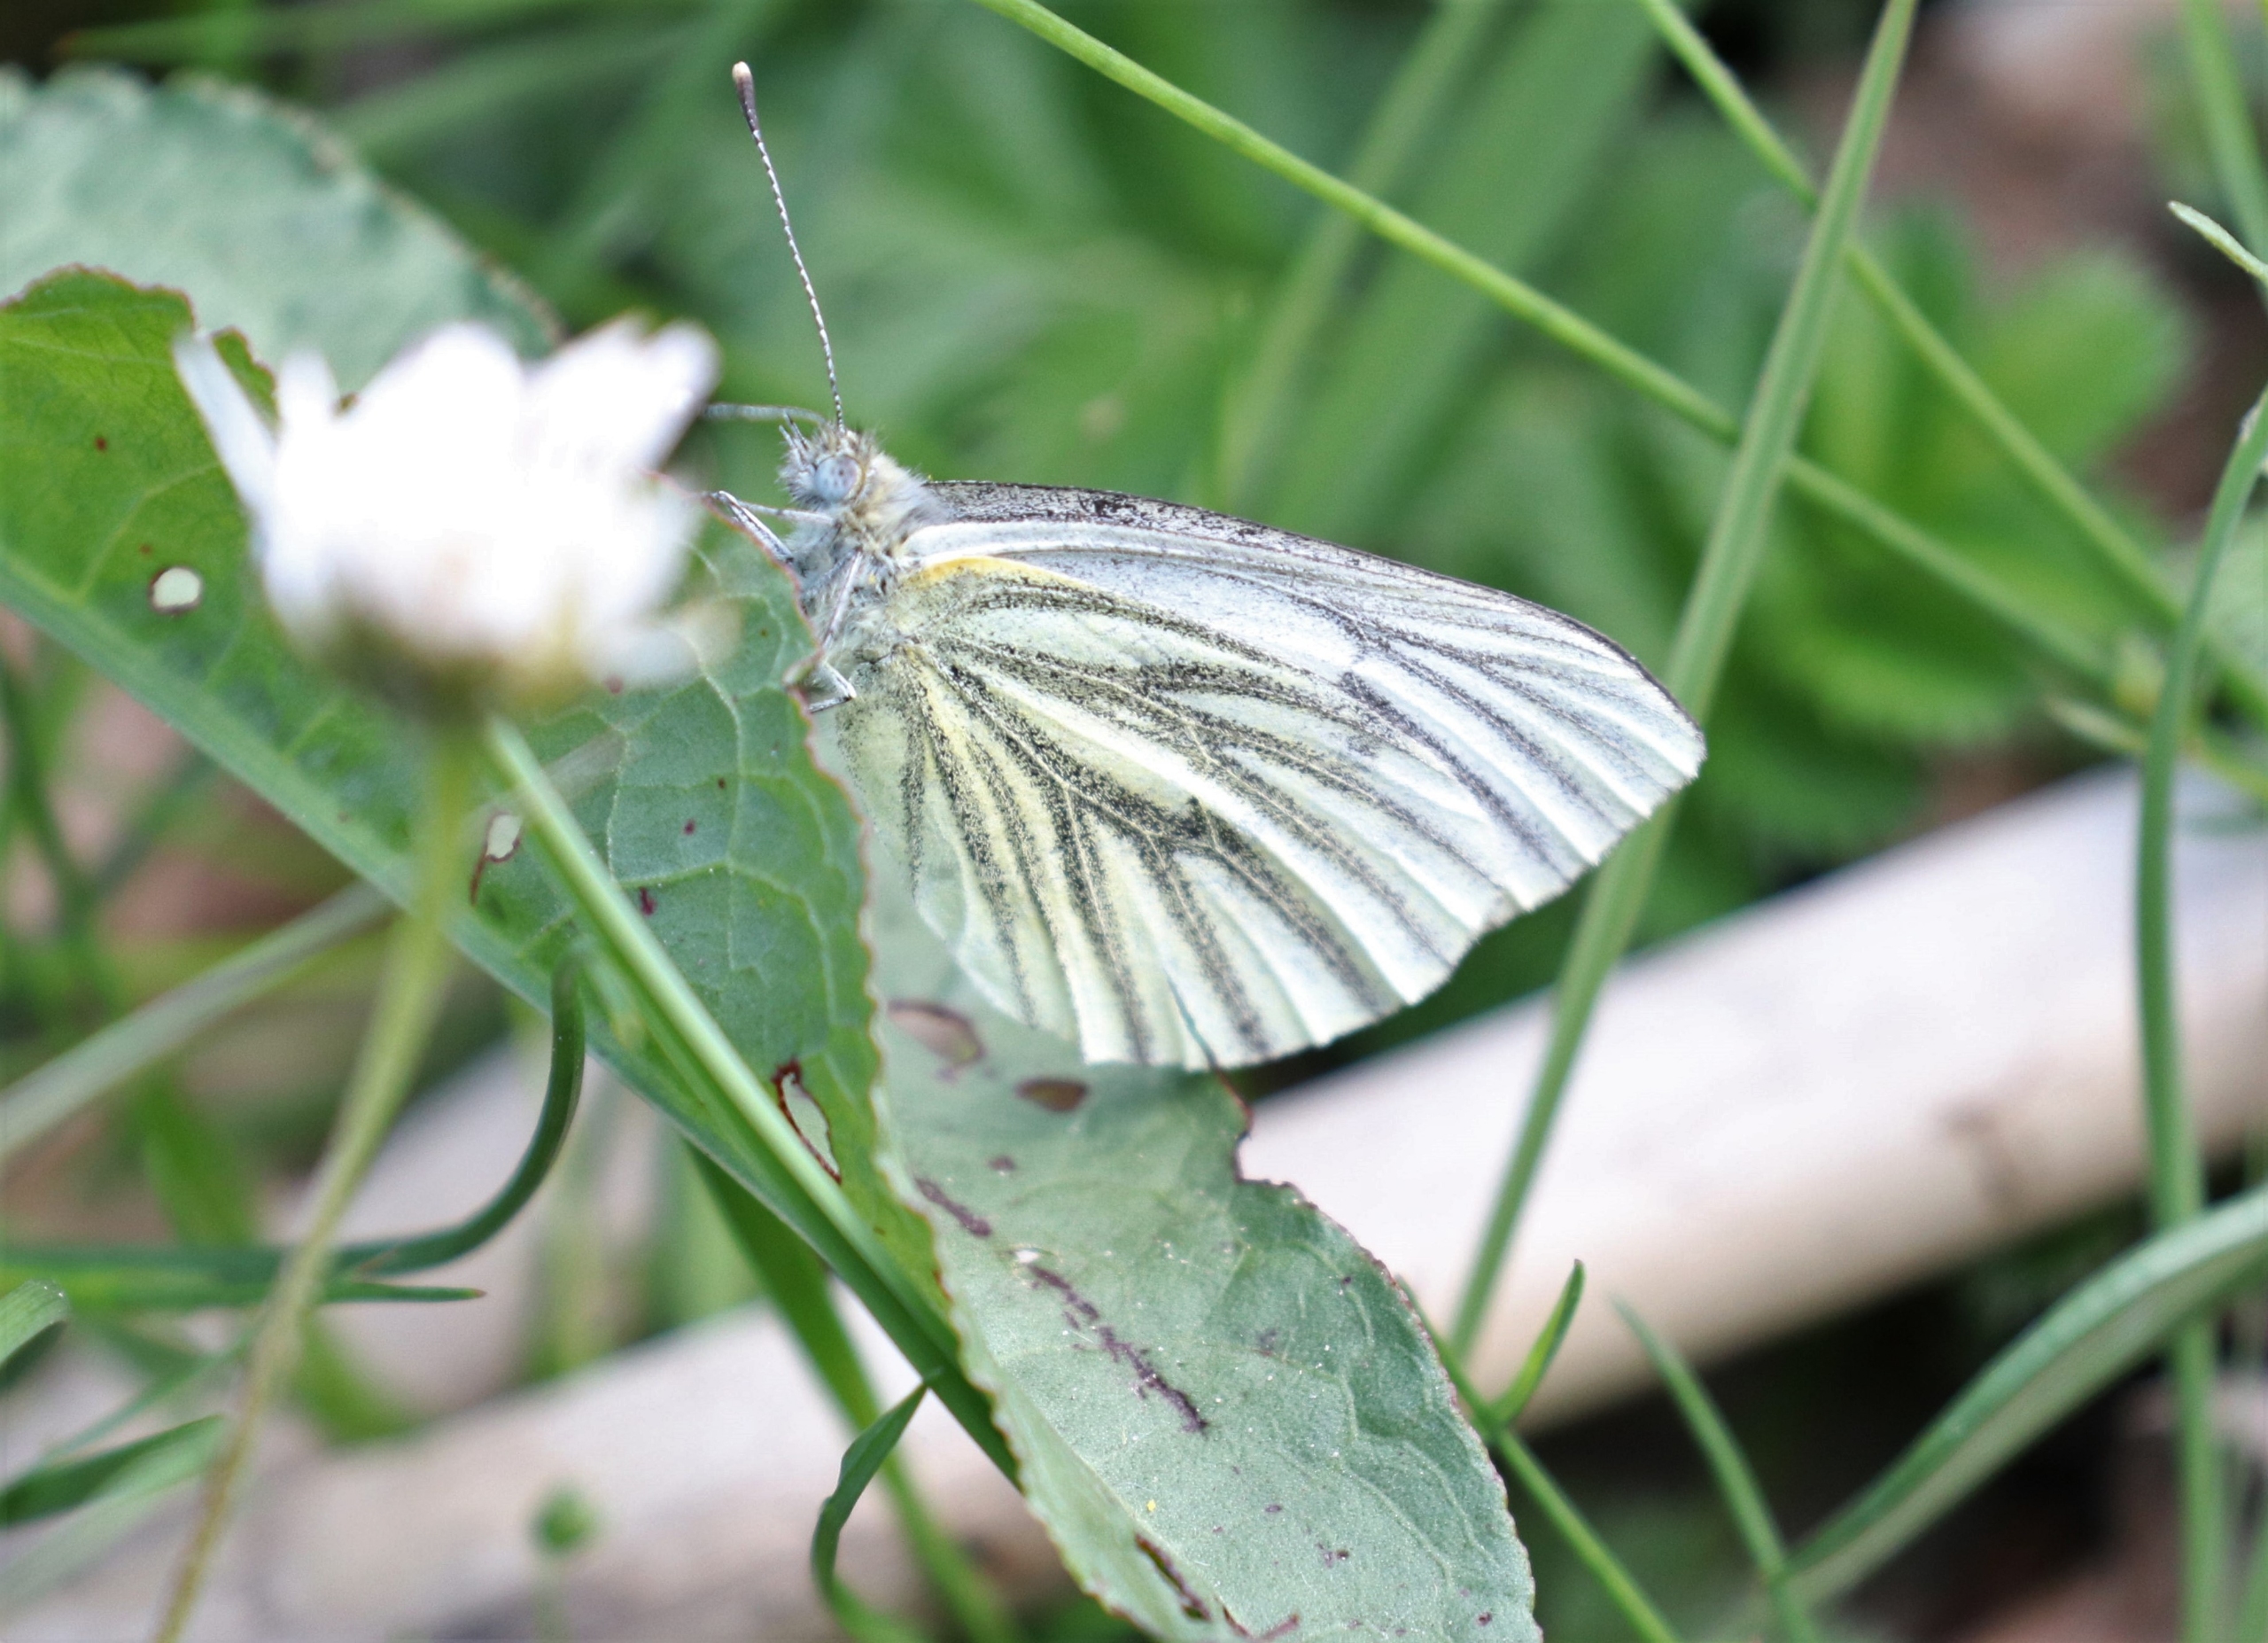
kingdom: Animalia
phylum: Arthropoda
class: Insecta
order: Lepidoptera
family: Pieridae
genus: Pieris
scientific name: Pieris napi
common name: Grønåret kålsommerfugl
